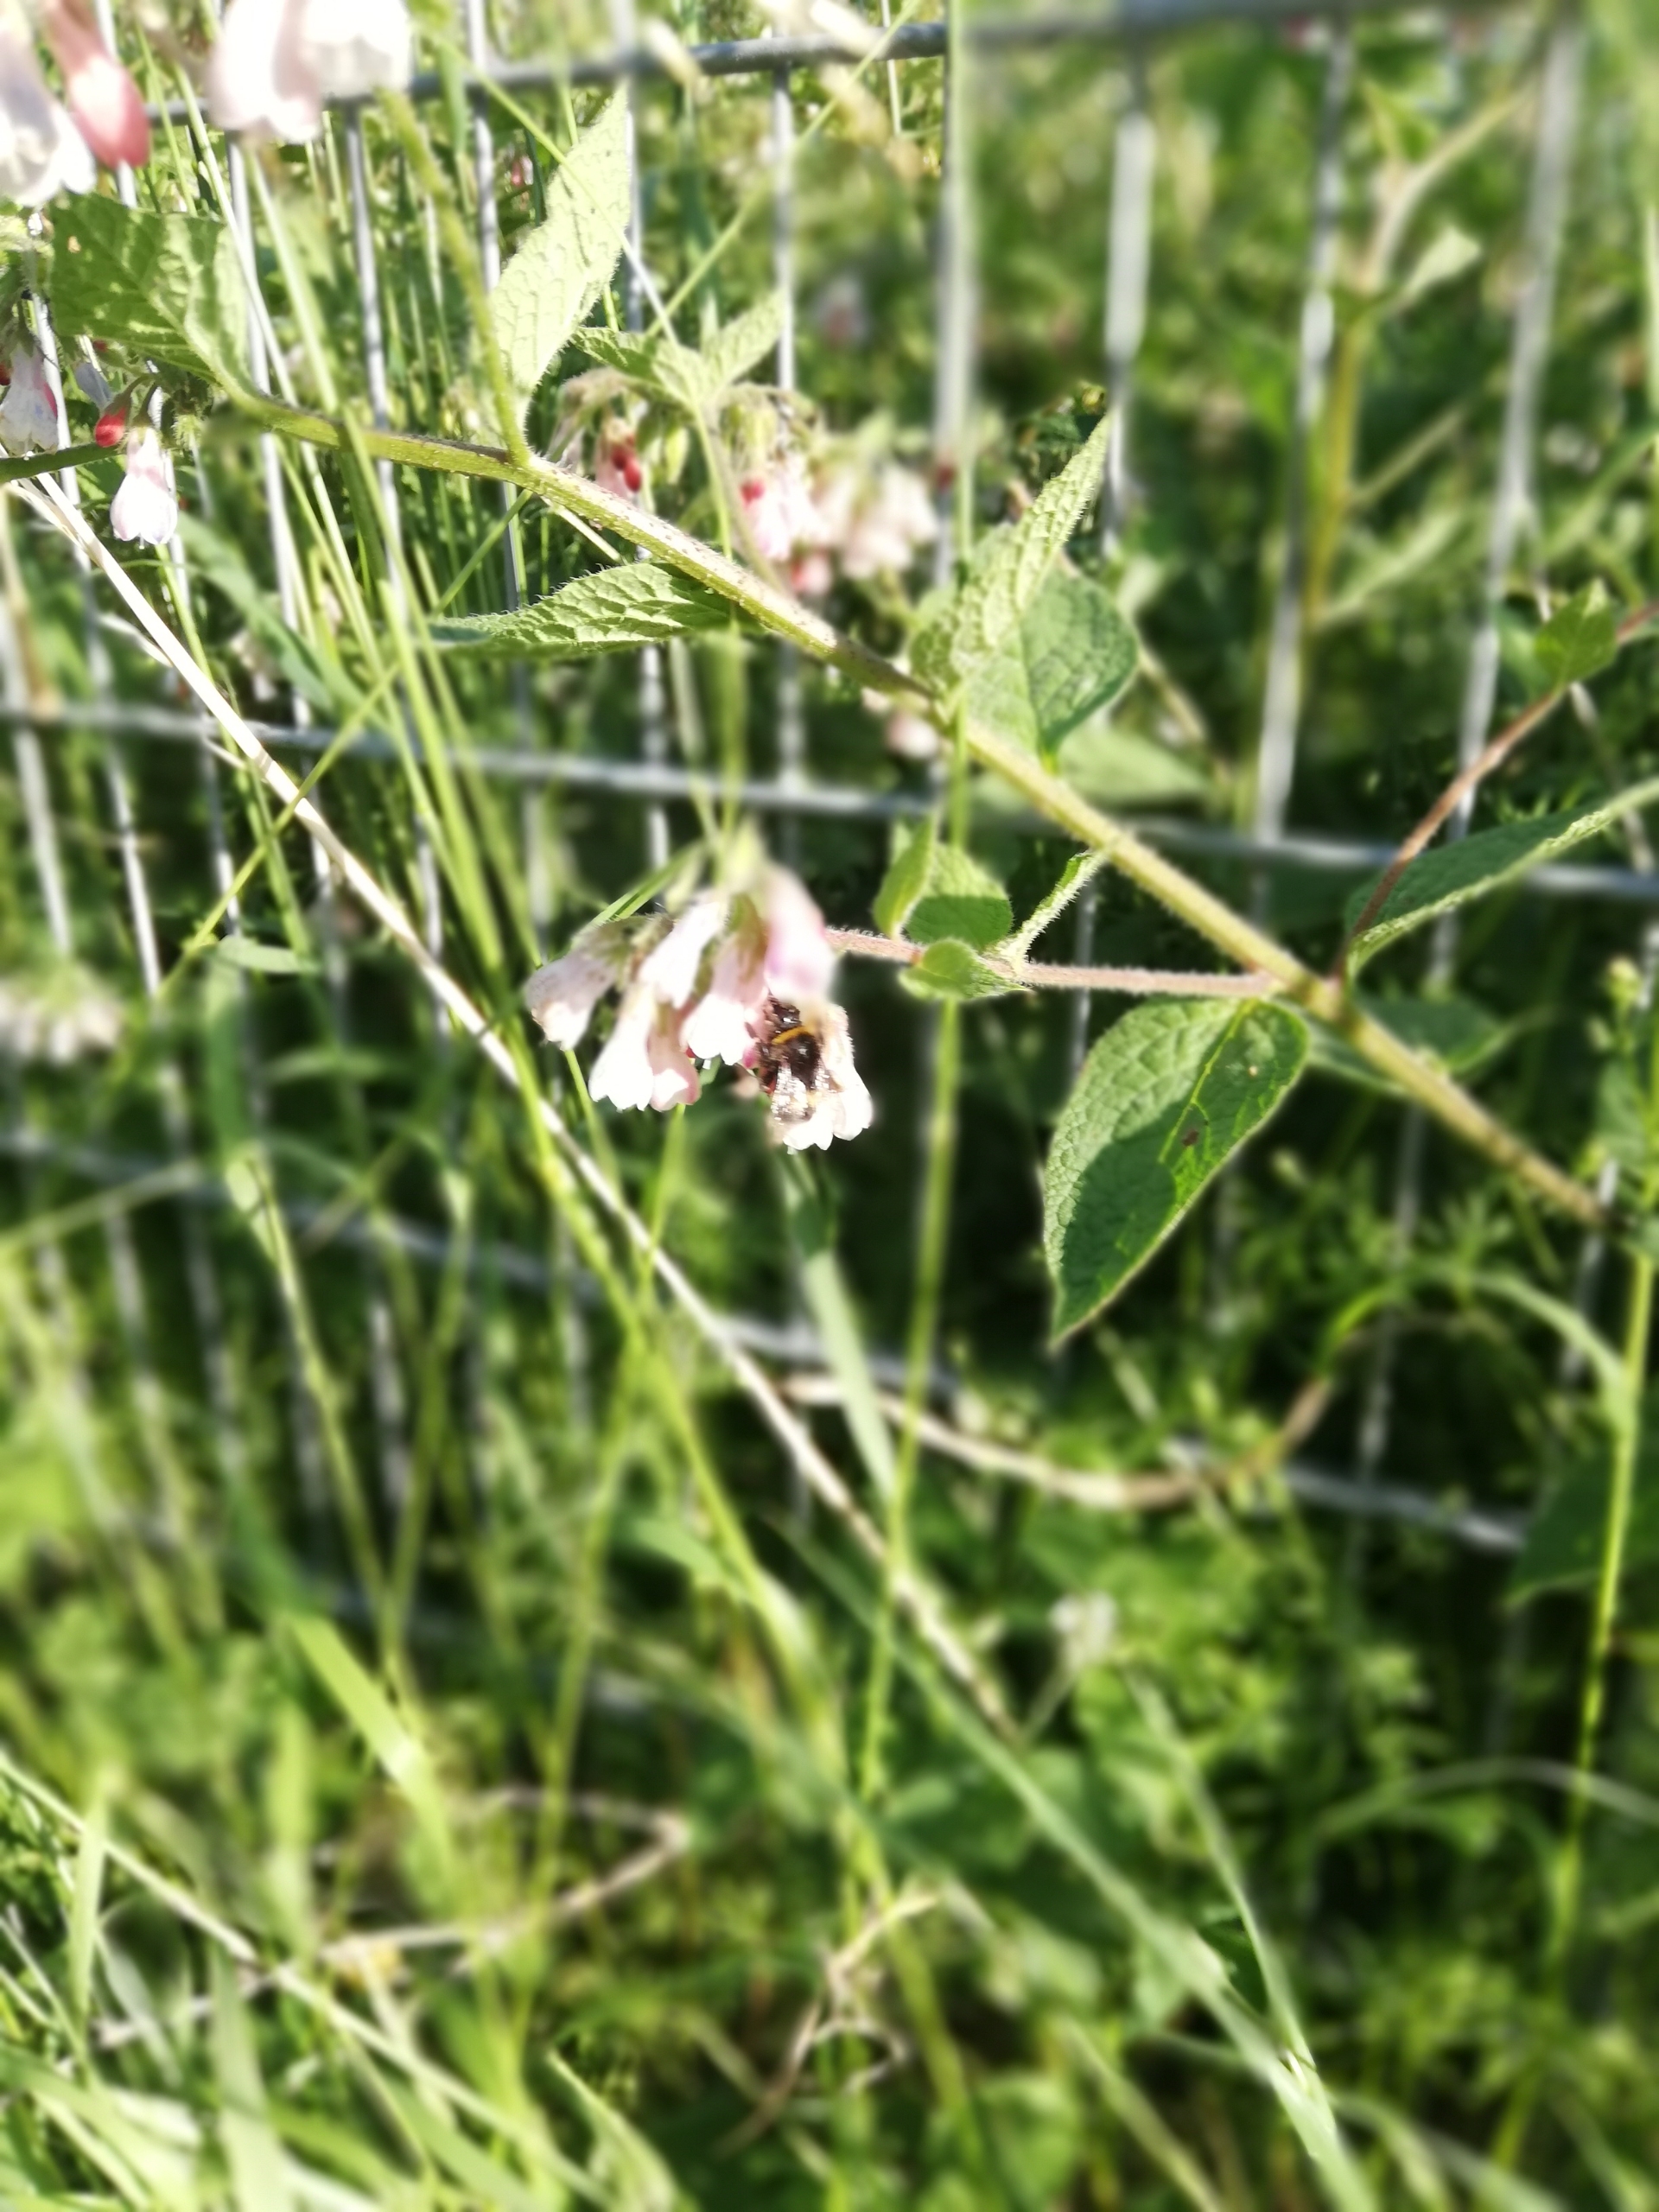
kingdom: Plantae
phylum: Tracheophyta
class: Magnoliopsida
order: Boraginales
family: Boraginaceae
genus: Symphytum
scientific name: Symphytum hidcotense
